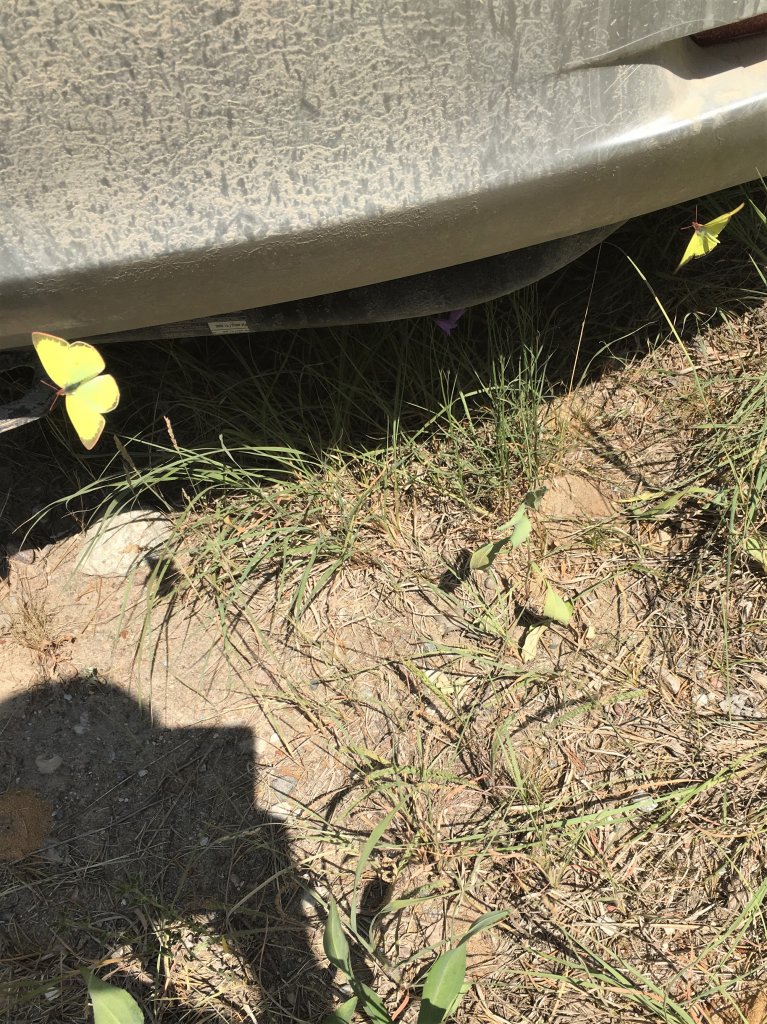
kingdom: Animalia
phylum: Arthropoda
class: Insecta
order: Lepidoptera
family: Pieridae
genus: Colias
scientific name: Colias interior
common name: Pink-edged Sulphur
